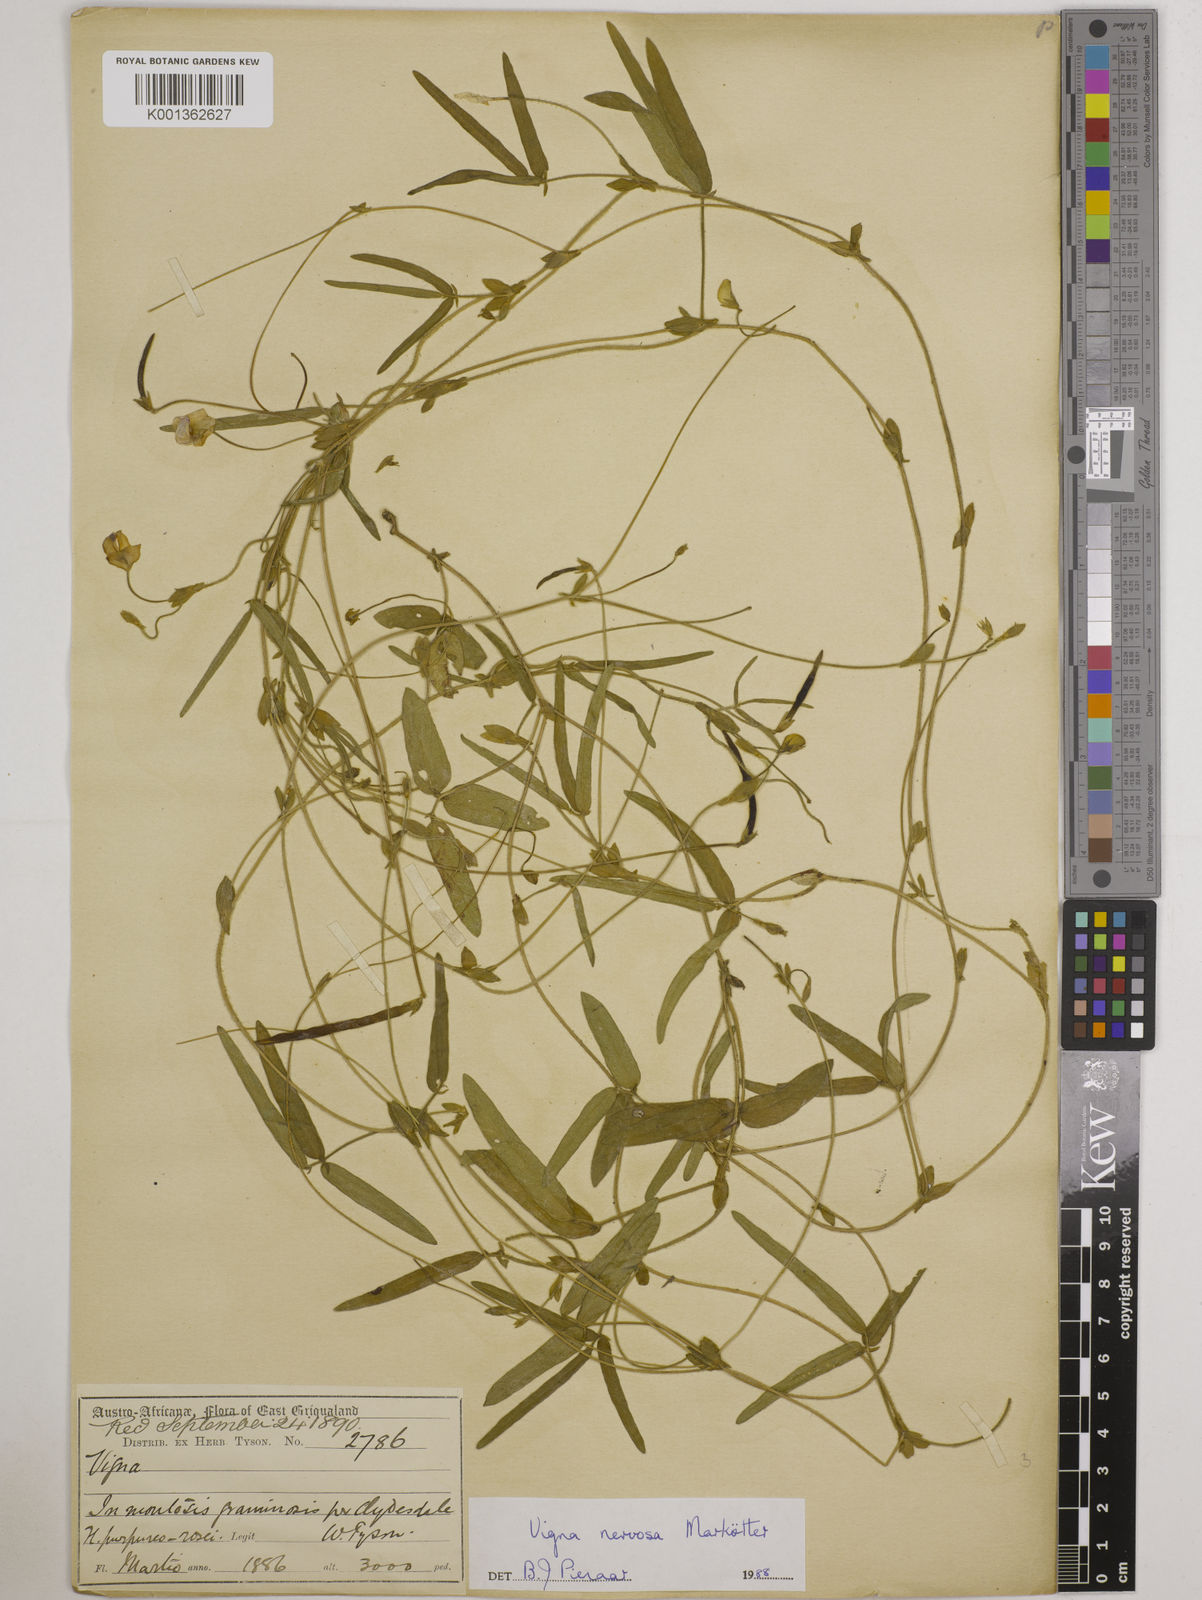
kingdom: Plantae
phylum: Tracheophyta
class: Magnoliopsida
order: Fabales
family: Fabaceae
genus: Vigna
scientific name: Vigna nervosa
